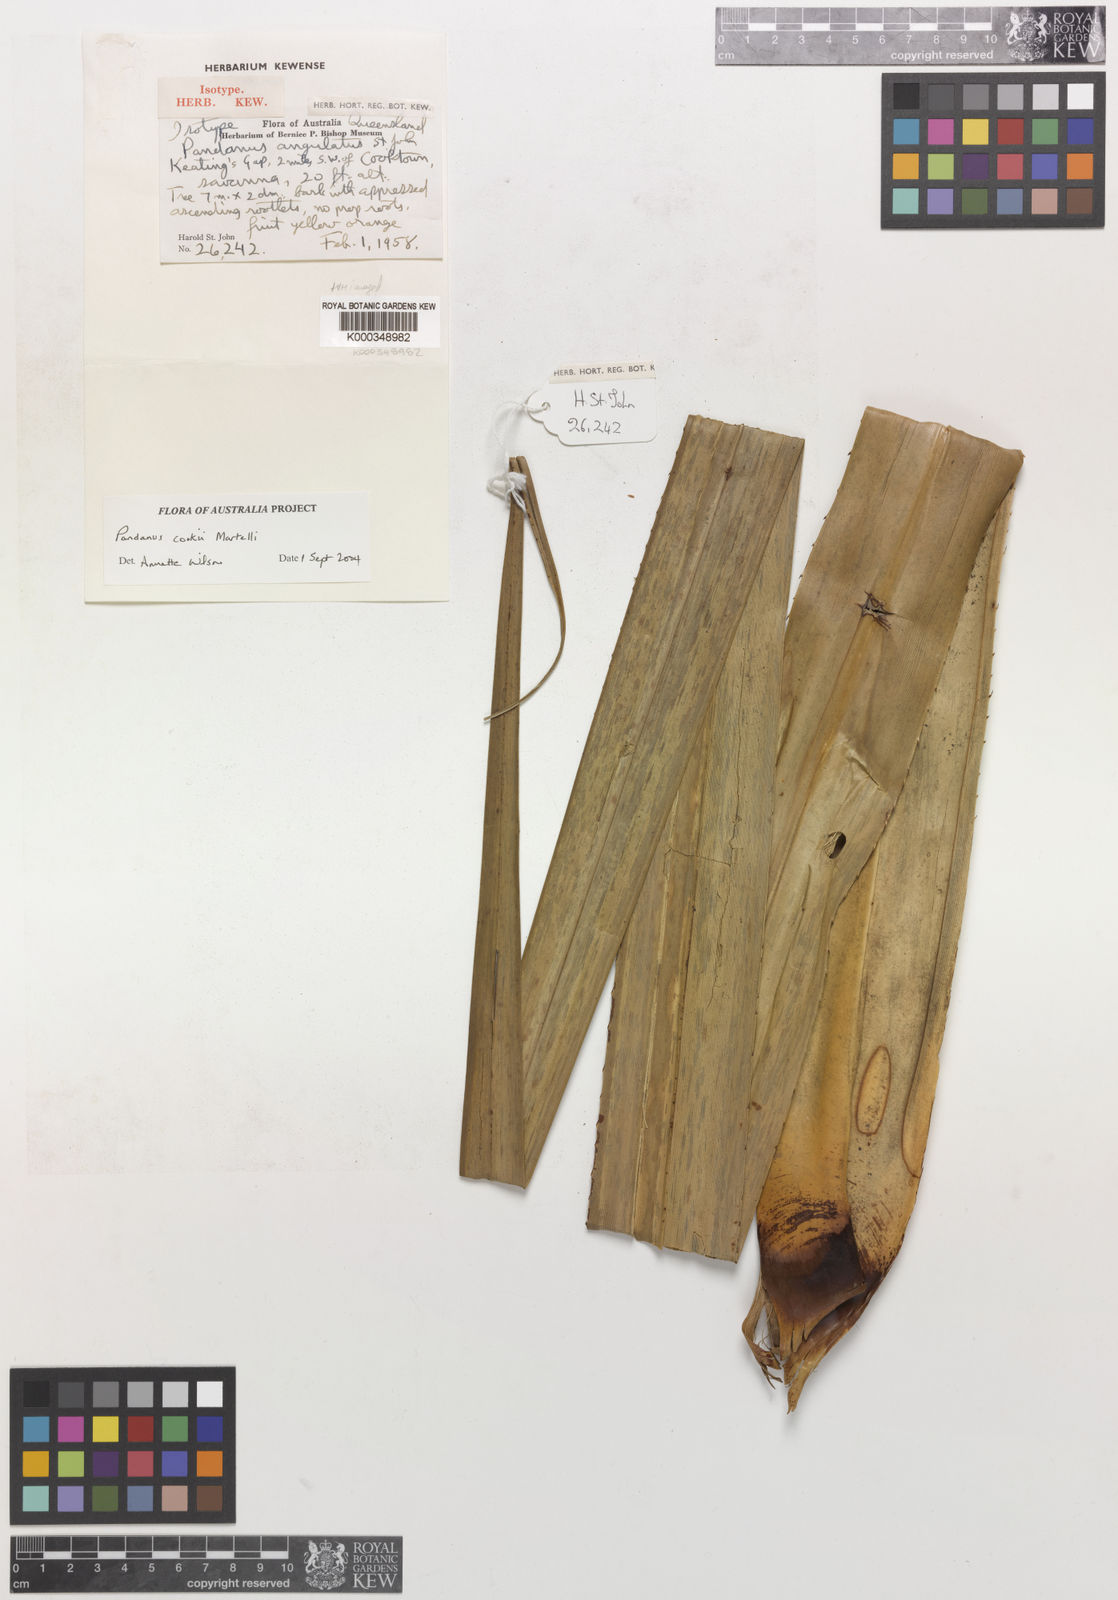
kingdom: Plantae
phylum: Tracheophyta
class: Liliopsida
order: Pandanales
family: Pandanaceae
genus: Pandanus
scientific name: Pandanus cookii
